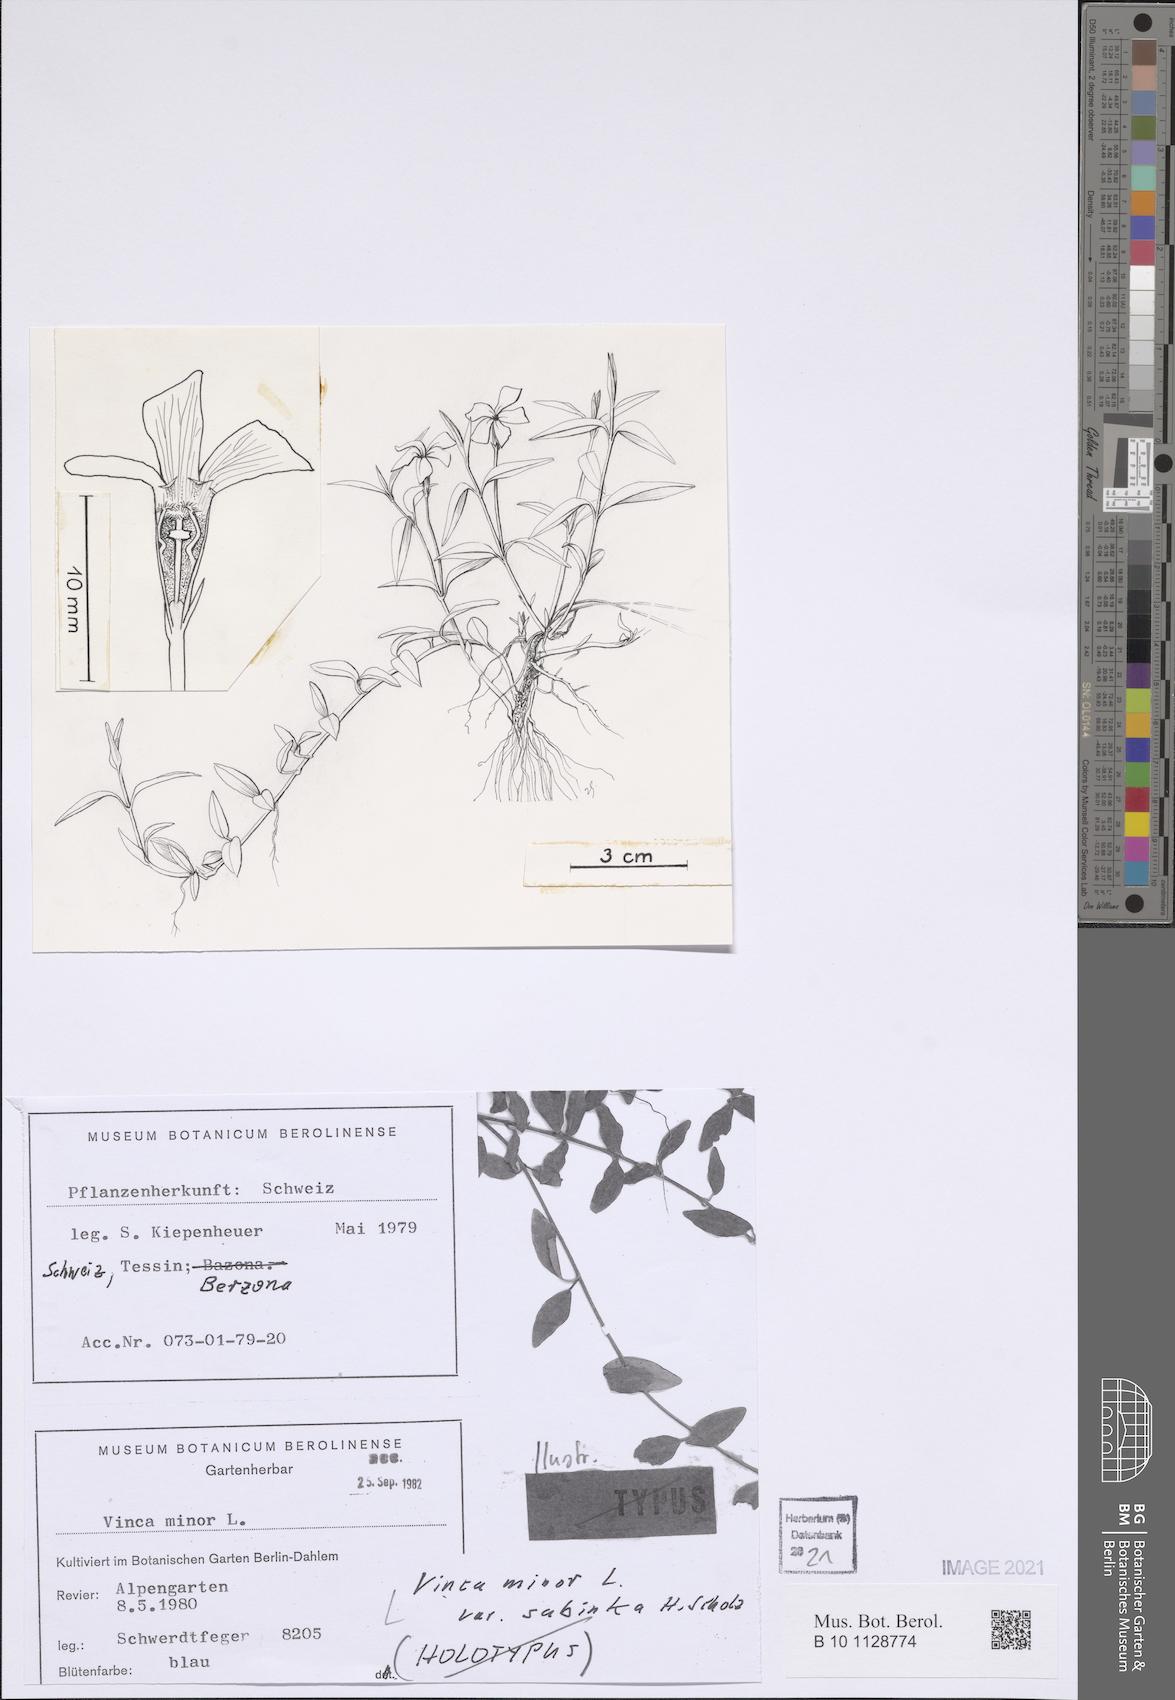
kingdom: Plantae
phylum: Tracheophyta
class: Magnoliopsida
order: Gentianales
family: Apocynaceae
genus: Vinca
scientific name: Vinca minor
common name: Lesser periwinkle
